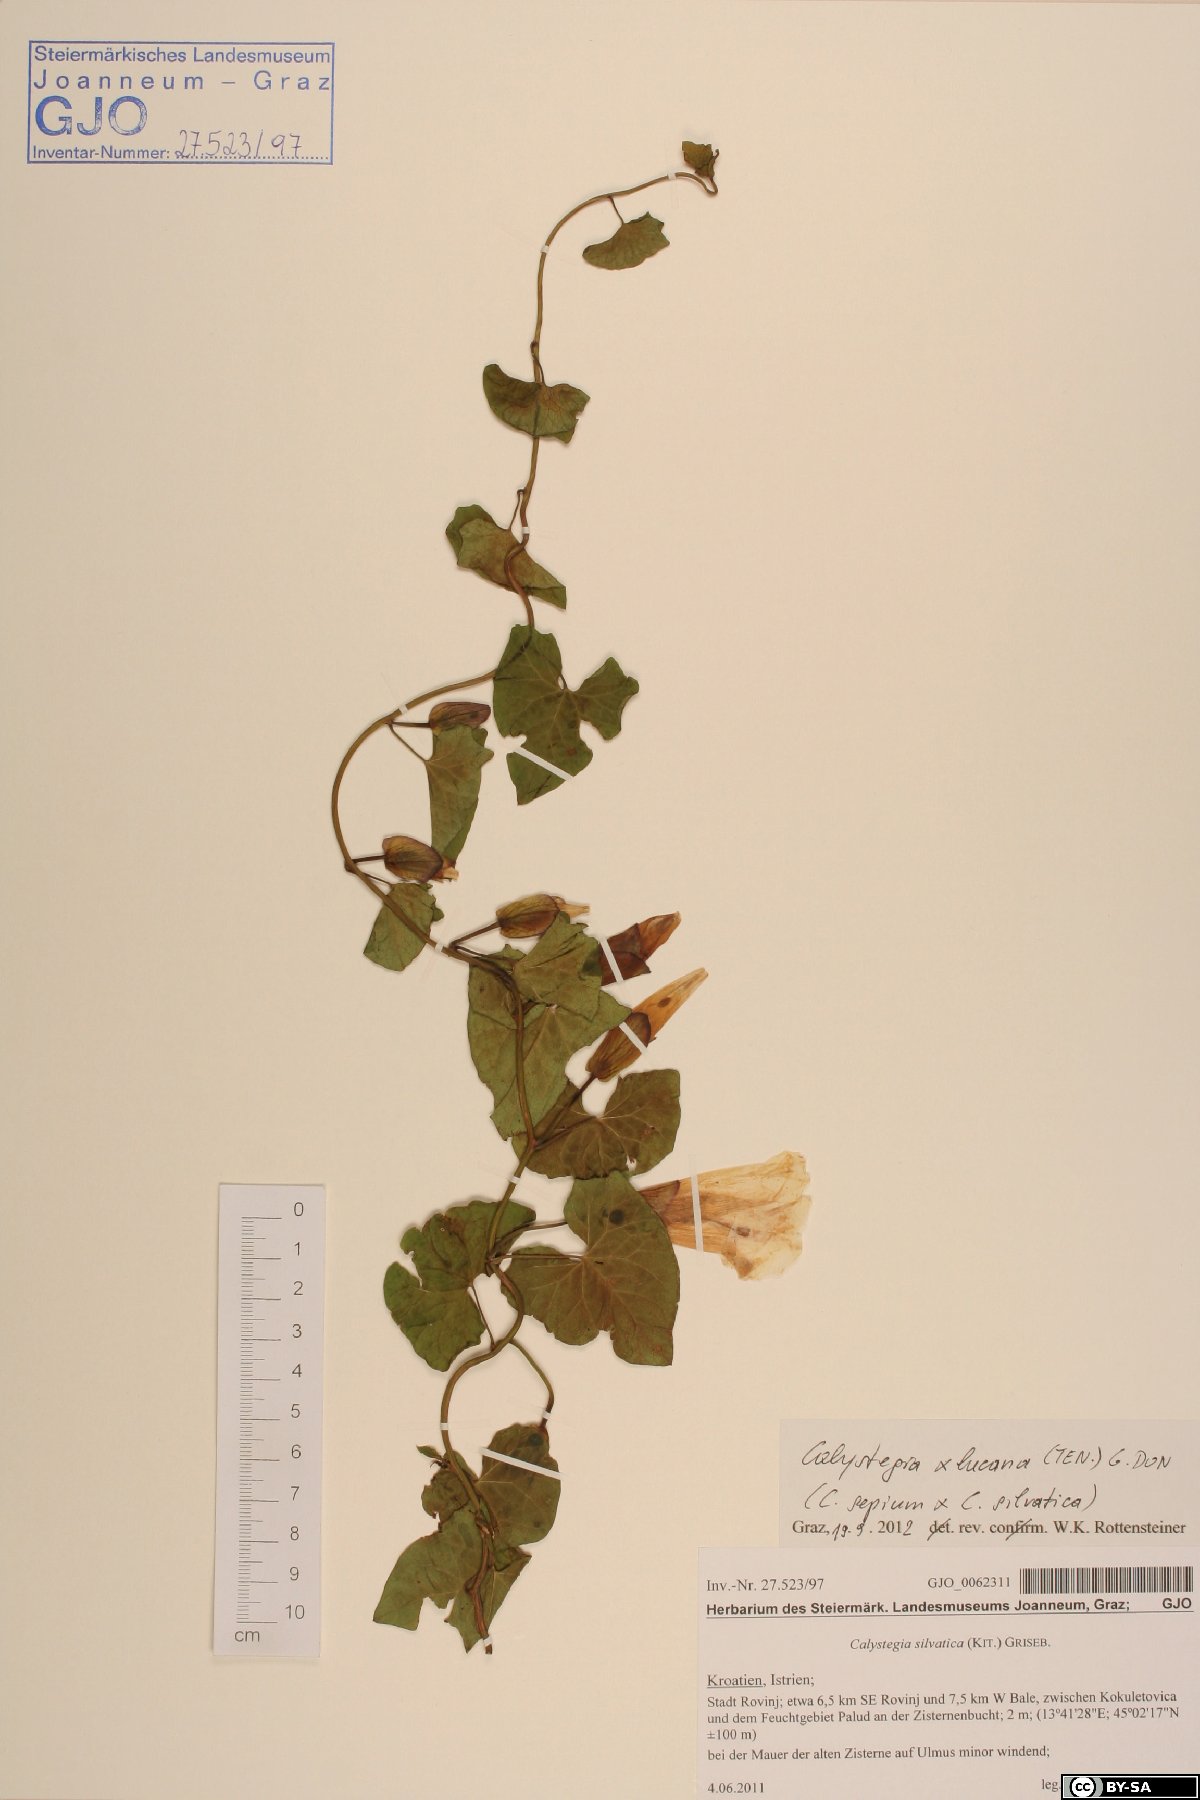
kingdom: Plantae
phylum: Tracheophyta
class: Magnoliopsida
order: Solanales
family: Convolvulaceae
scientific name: Convolvulaceae
